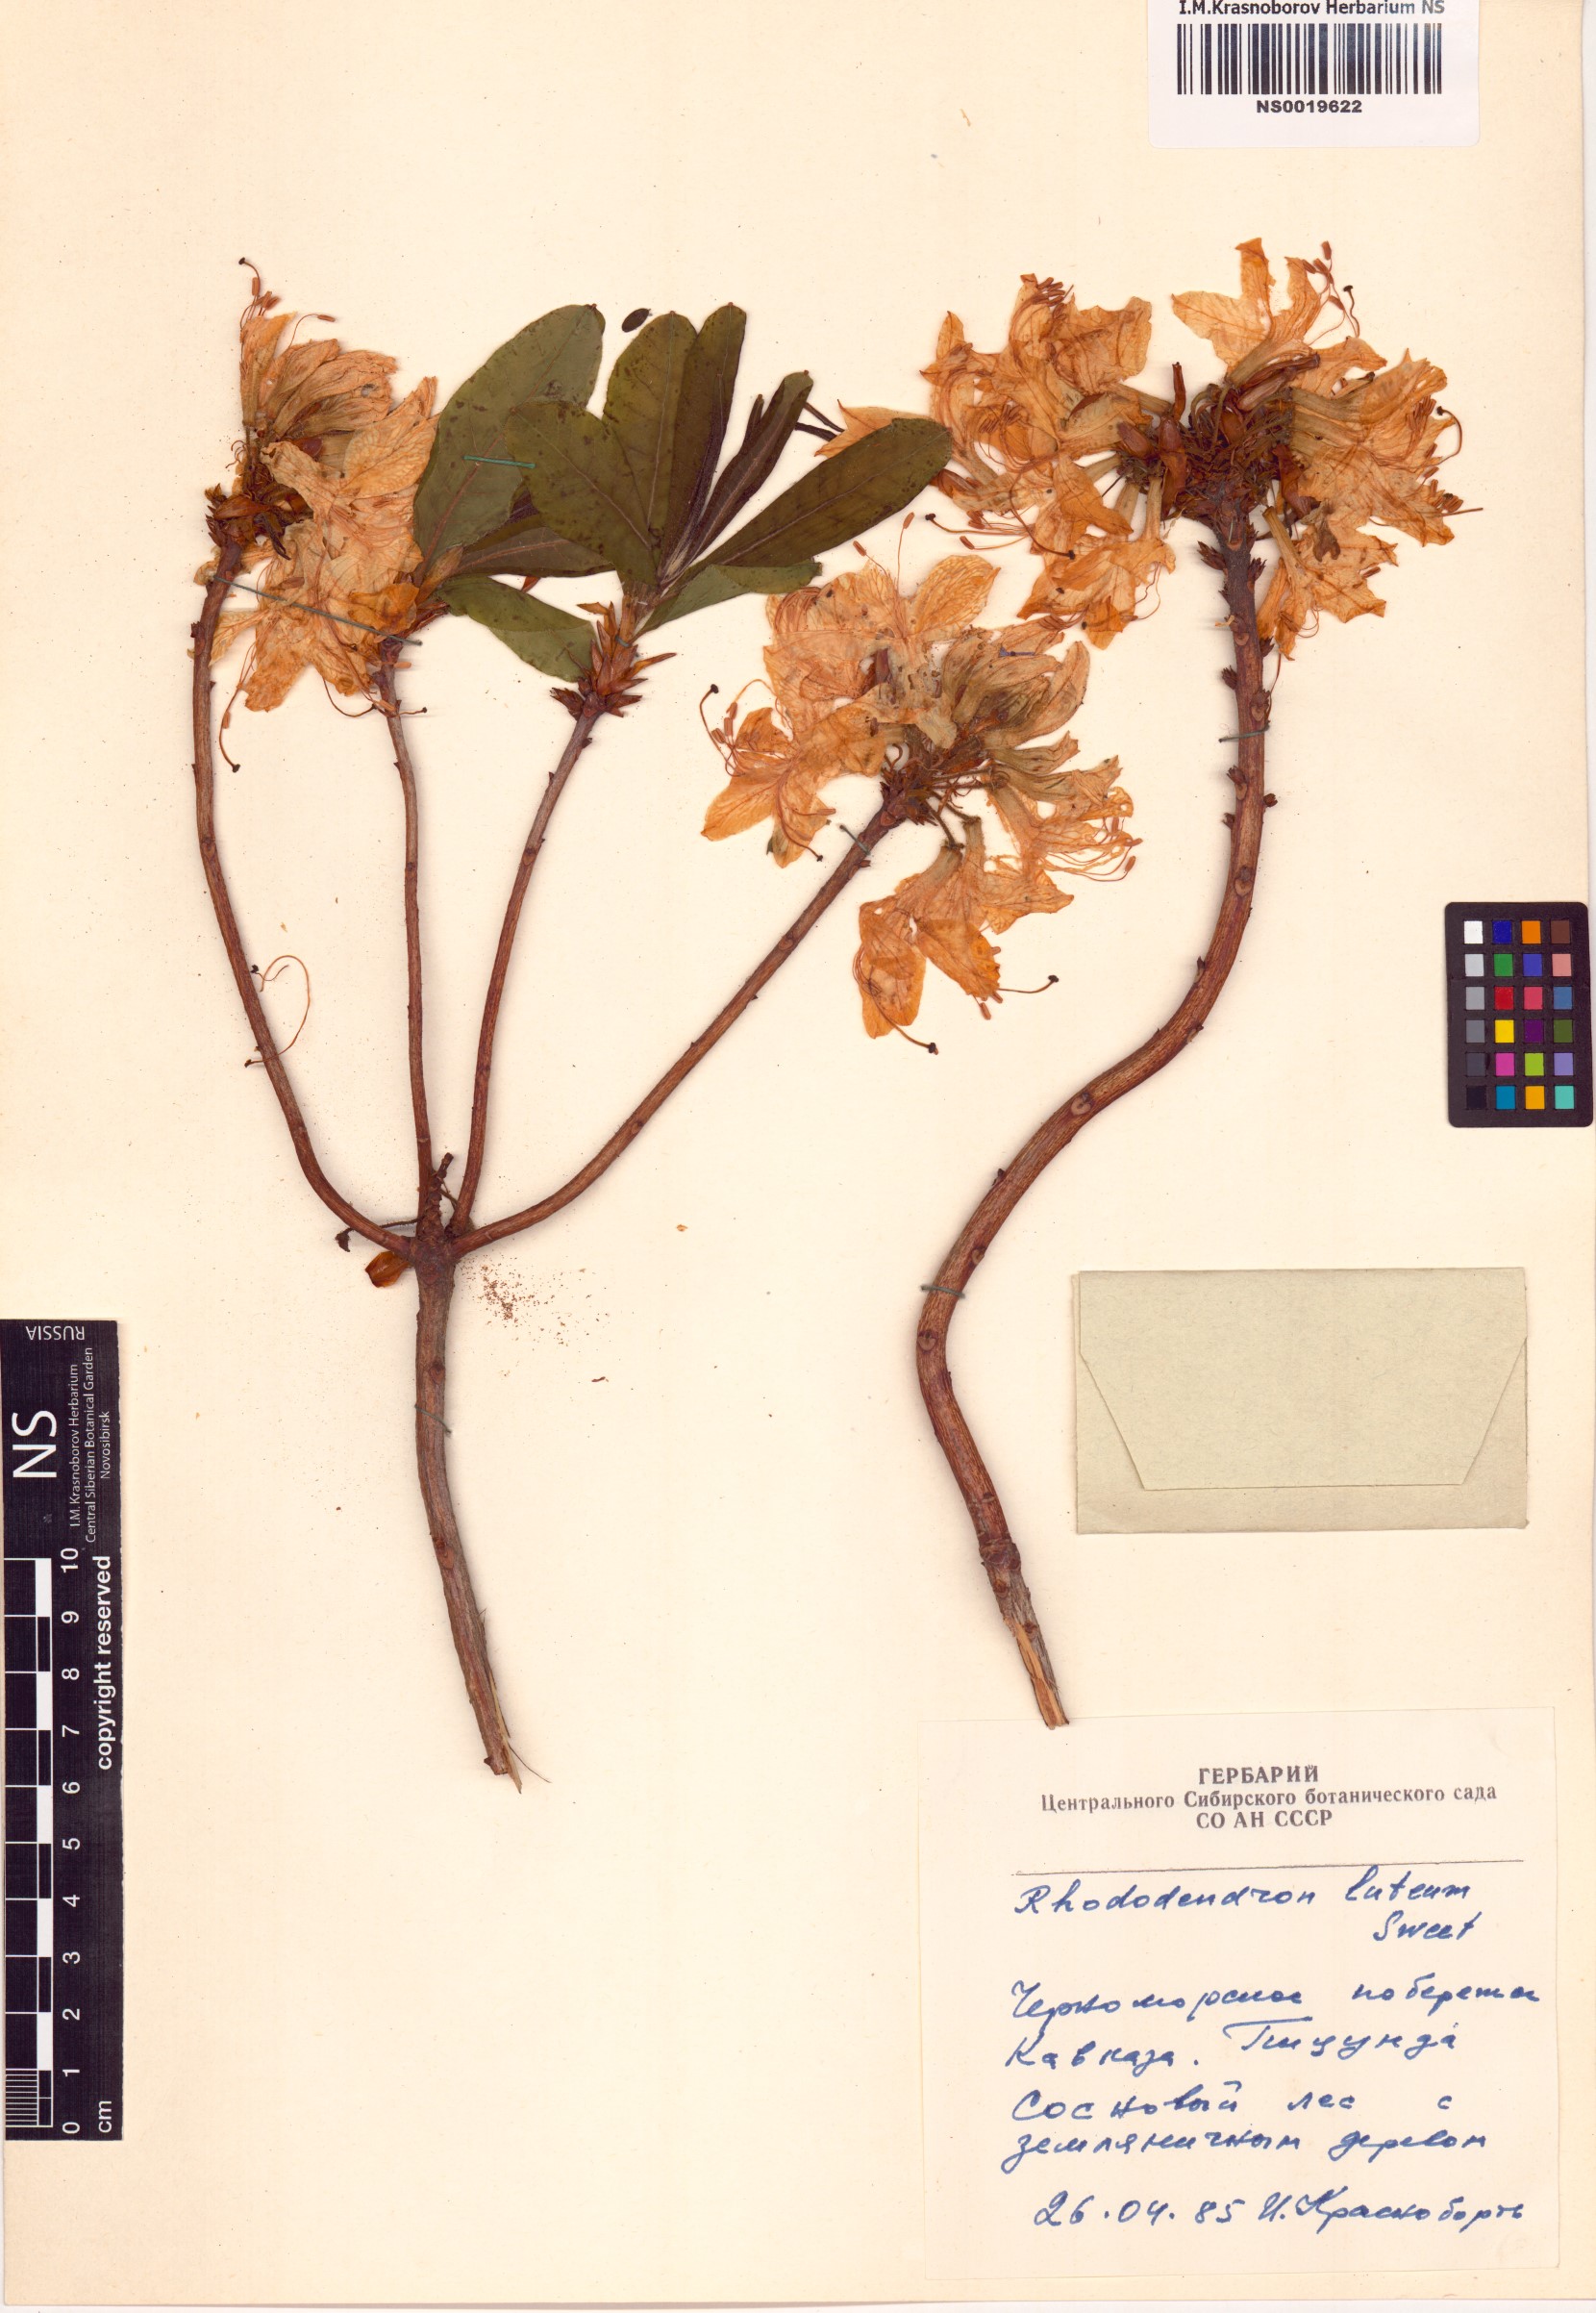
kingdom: Plantae
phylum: Tracheophyta
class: Magnoliopsida
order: Ericales
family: Ericaceae
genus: Rhododendron
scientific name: Rhododendron luteum
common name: Yellow azalea
